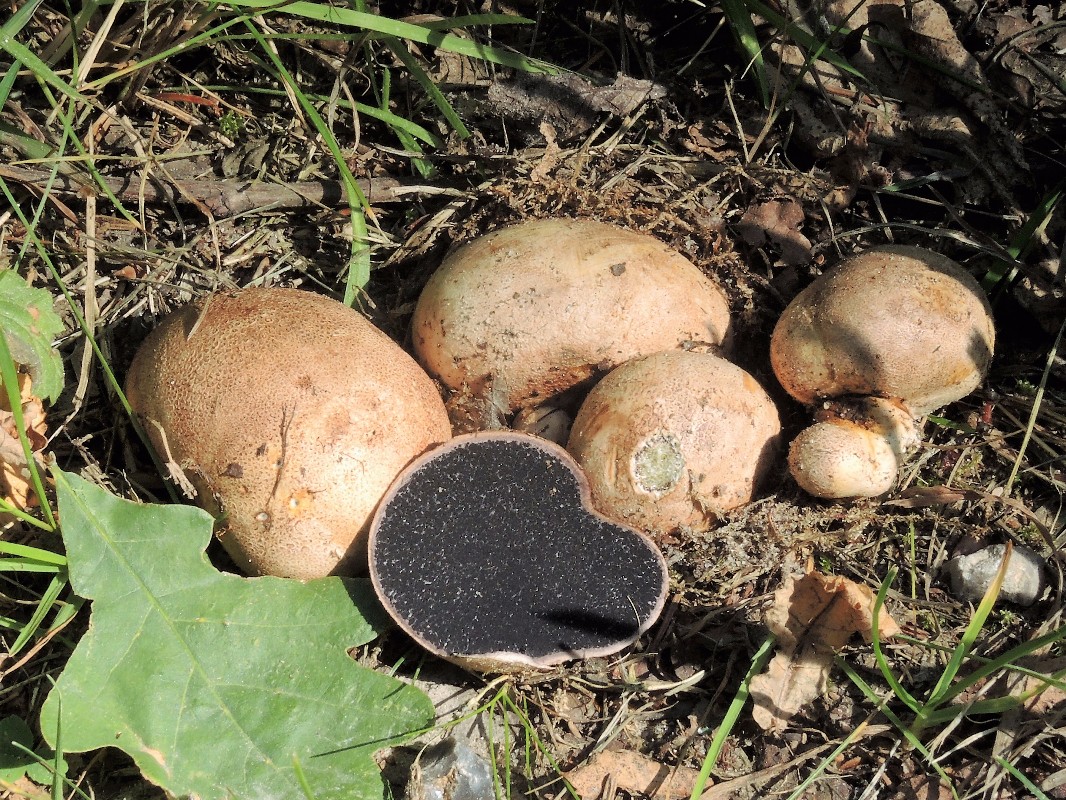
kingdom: Fungi
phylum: Basidiomycota
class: Agaricomycetes
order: Boletales
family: Sclerodermataceae
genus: Scleroderma
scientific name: Scleroderma bovista
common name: bovist-bruskbold
